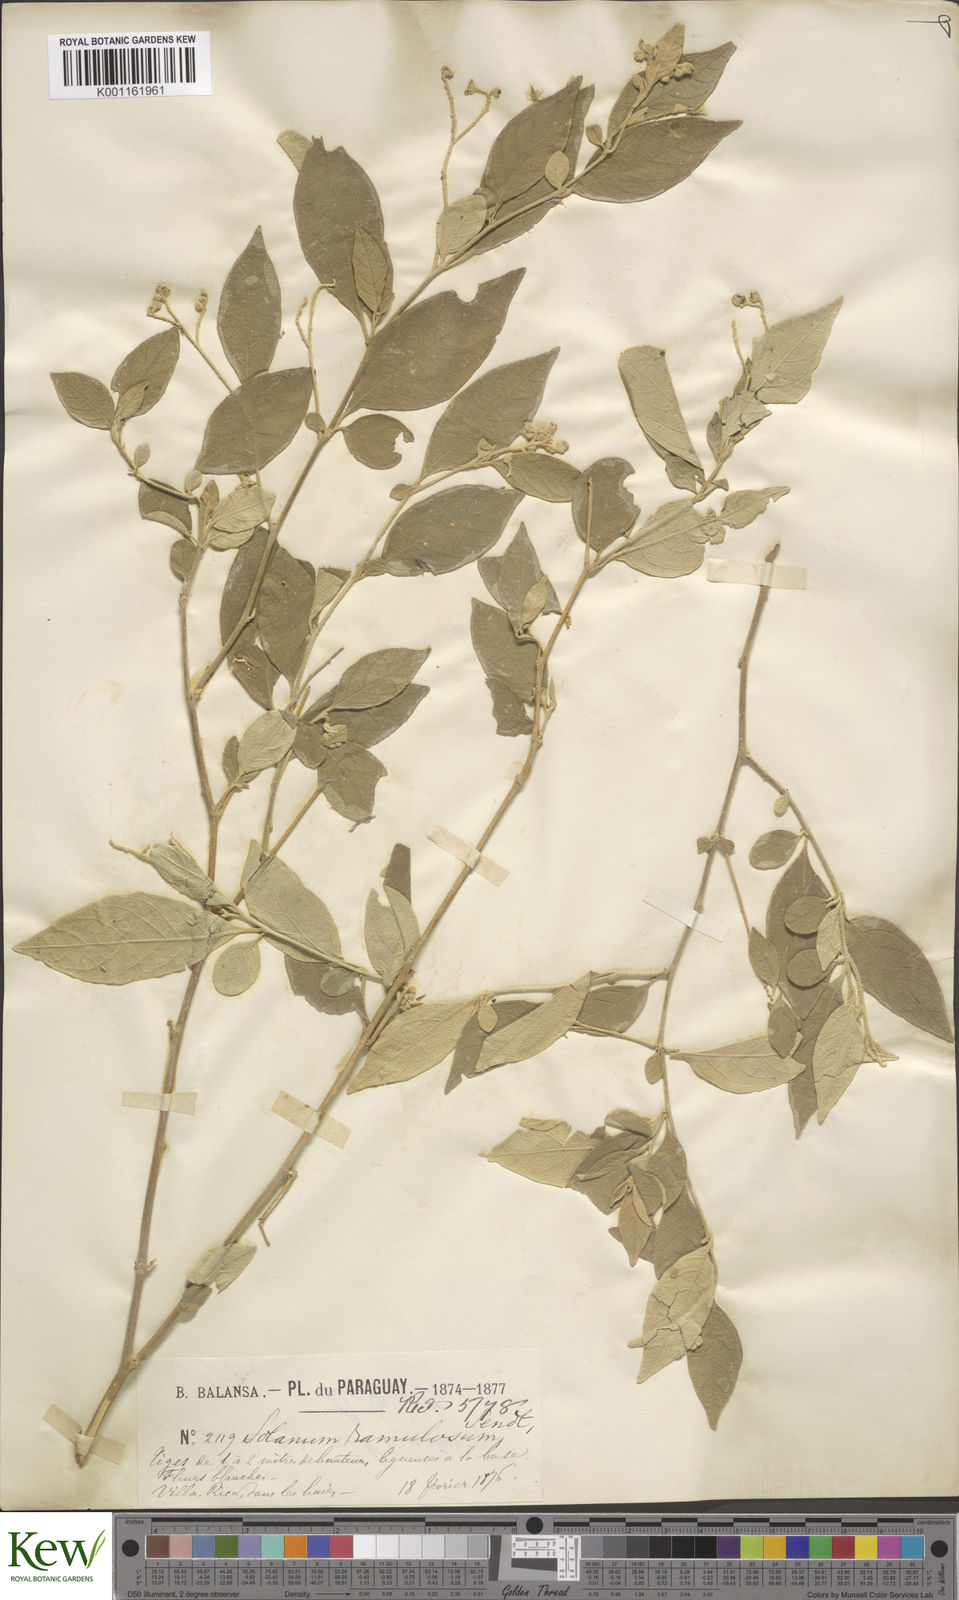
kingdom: Plantae
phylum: Tracheophyta
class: Magnoliopsida
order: Solanales
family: Solanaceae
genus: Solanum
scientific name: Solanum ramulosum
